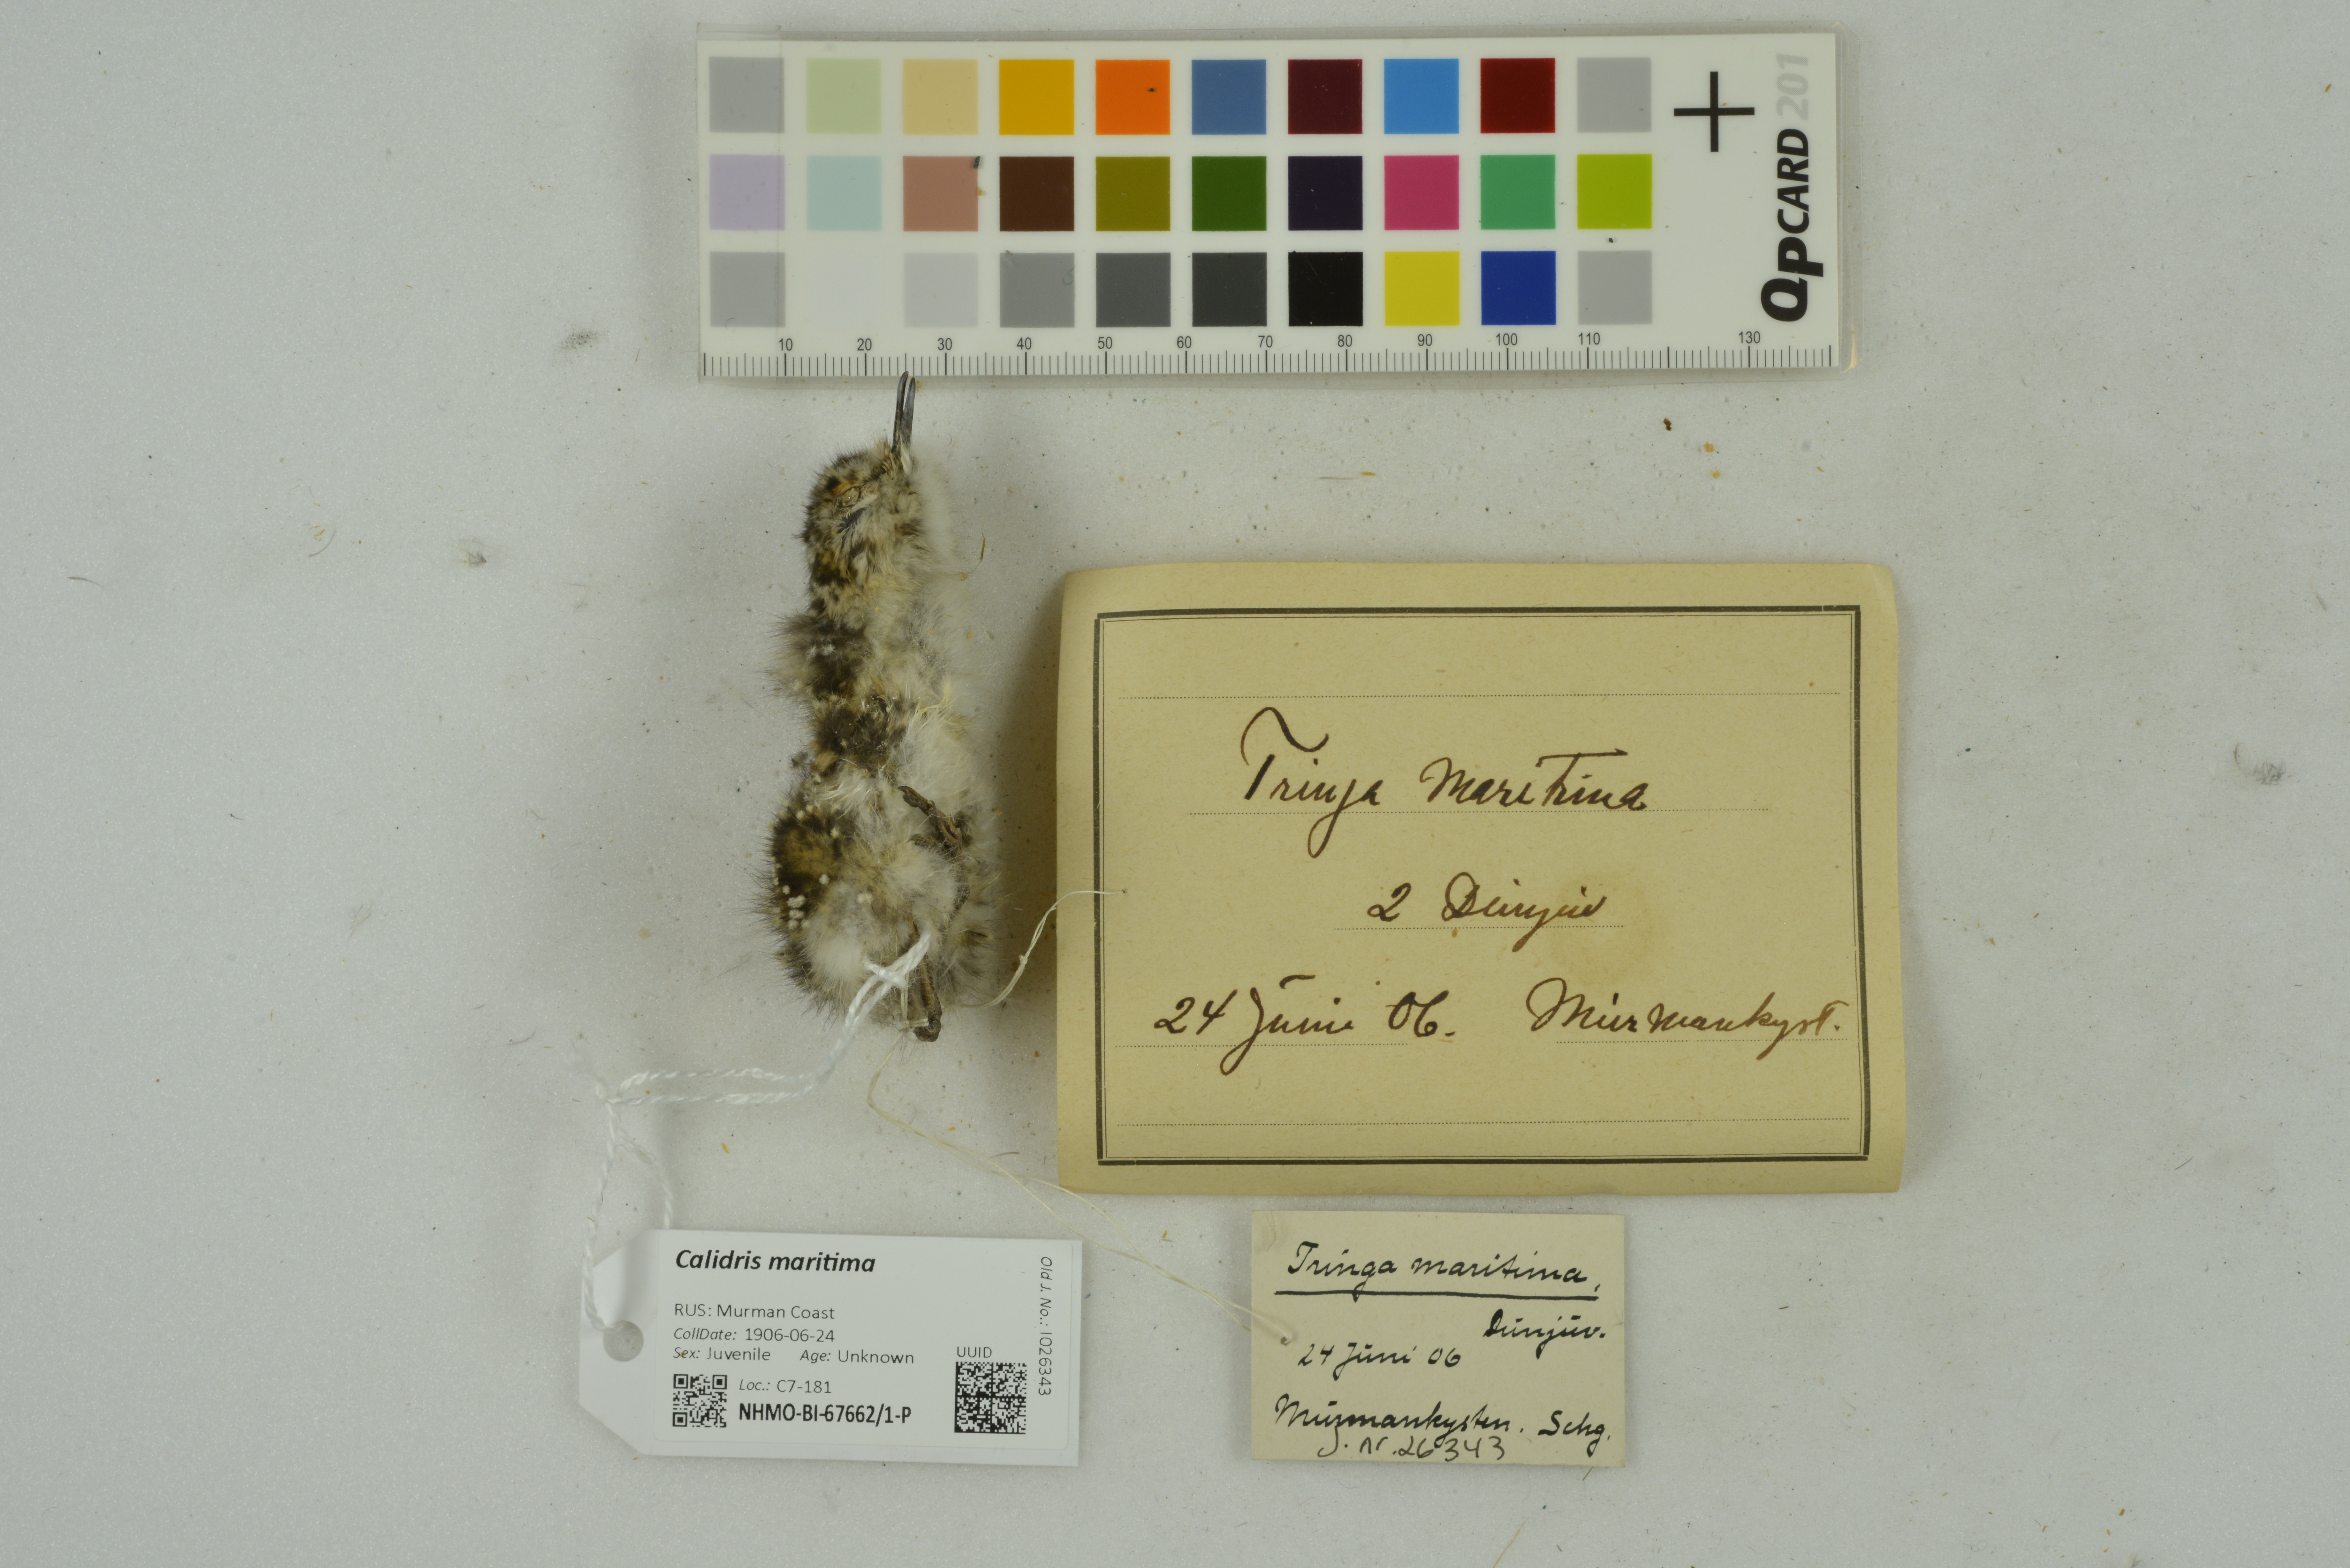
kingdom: Animalia
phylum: Chordata
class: Aves
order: Charadriiformes
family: Scolopacidae
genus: Calidris
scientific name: Calidris maritima
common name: Purple sandpiper
